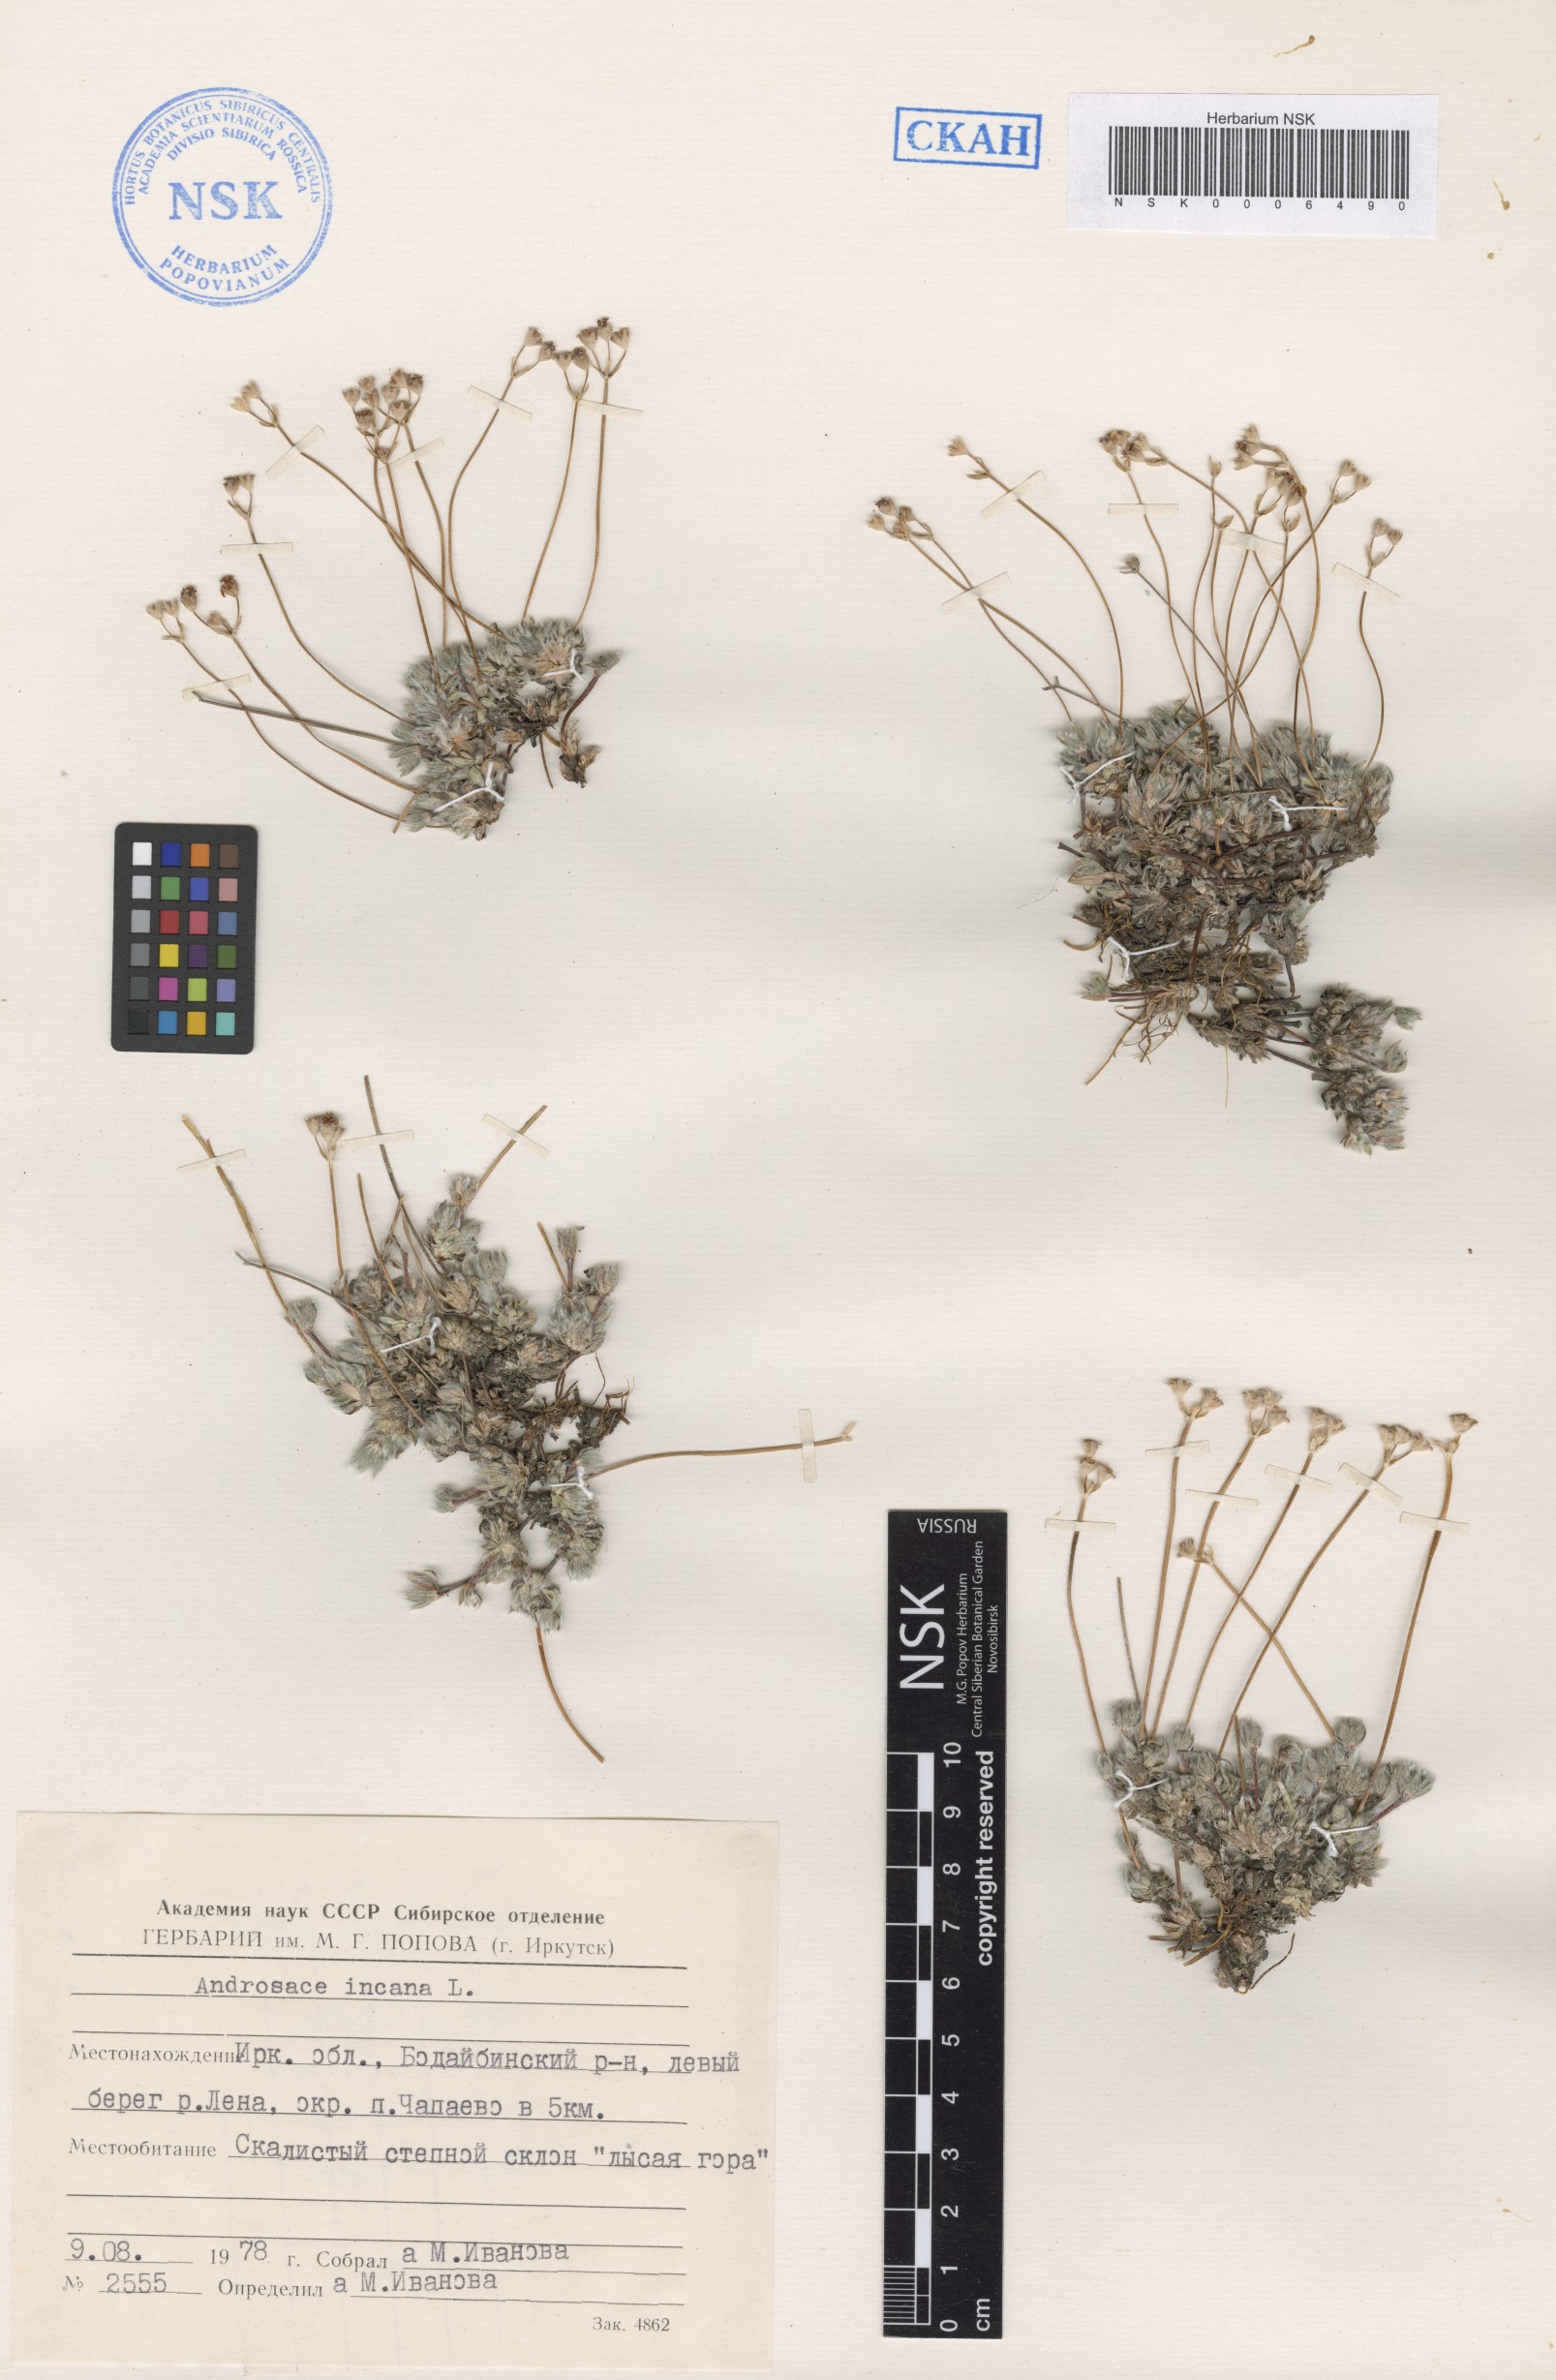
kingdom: Plantae
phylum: Tracheophyta
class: Magnoliopsida
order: Ericales
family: Primulaceae
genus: Androsace
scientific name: Androsace incana
